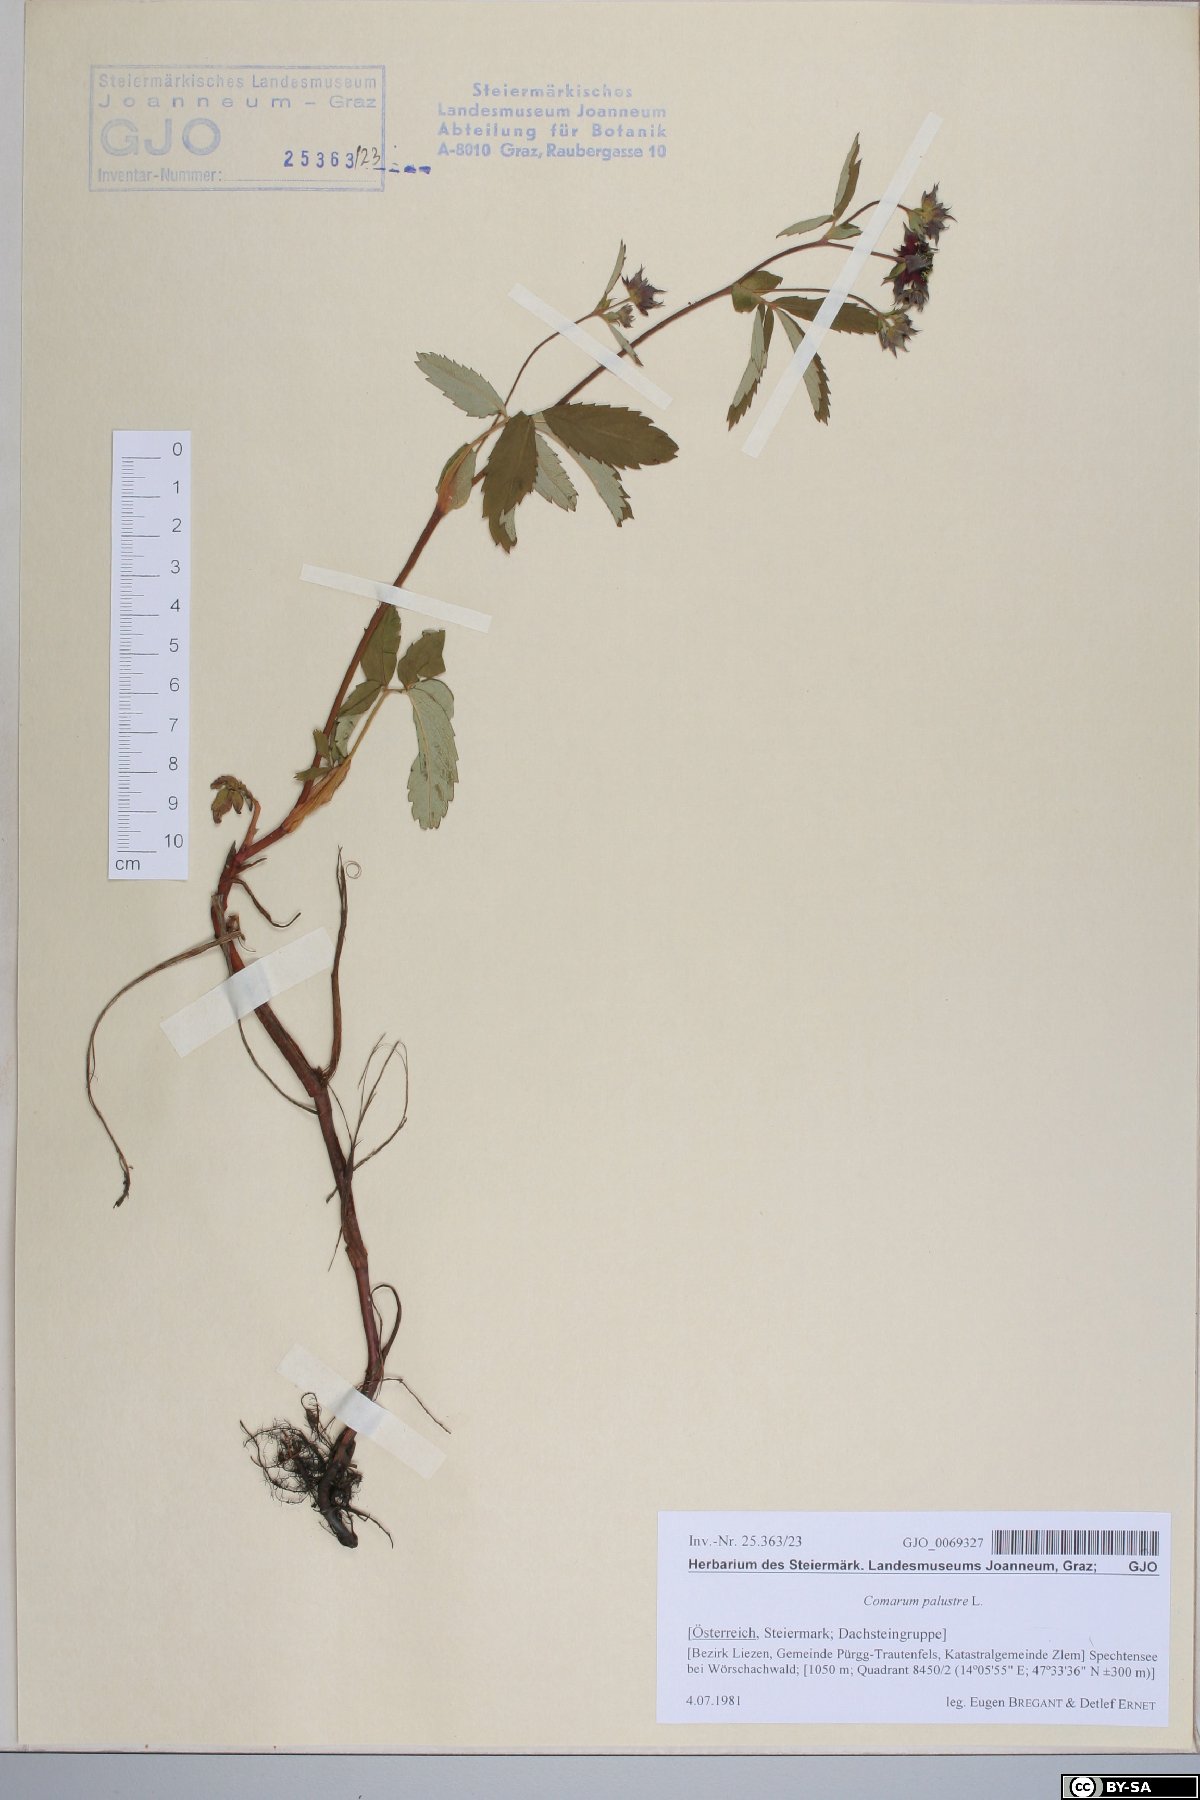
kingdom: Plantae
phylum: Tracheophyta
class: Magnoliopsida
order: Rosales
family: Rosaceae
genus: Comarum
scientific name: Comarum palustre
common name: Marsh cinquefoil
